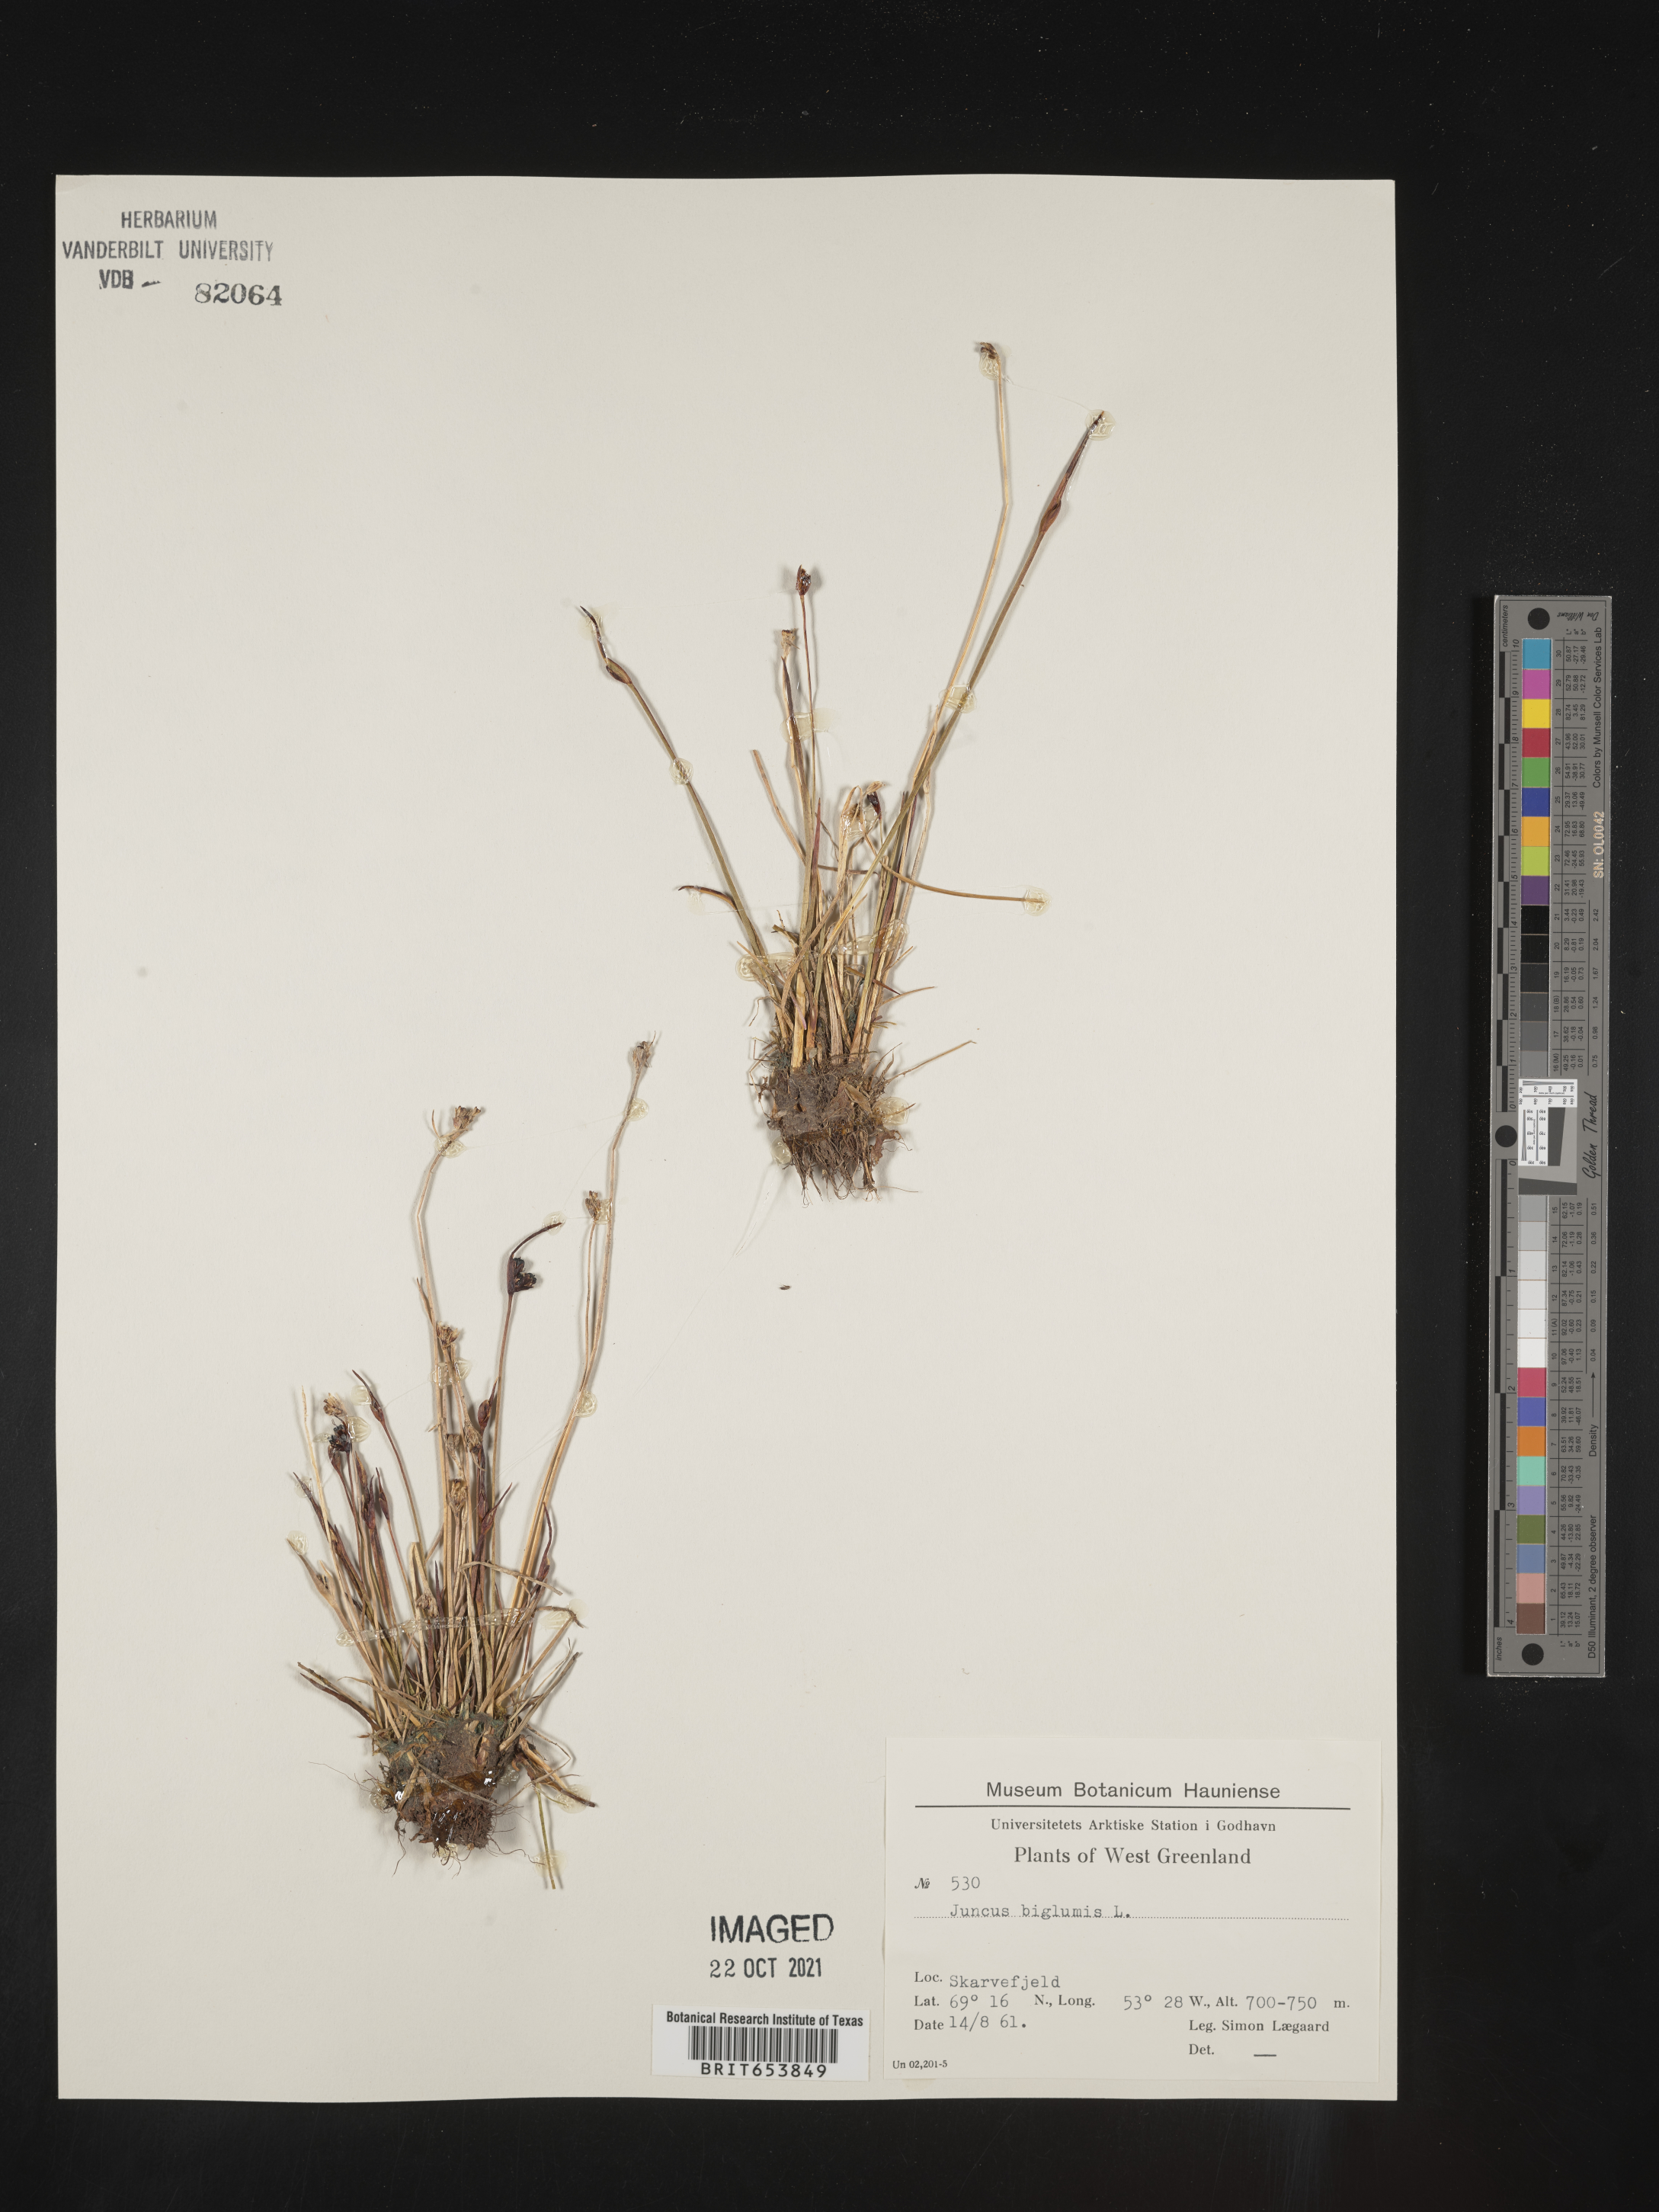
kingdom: Plantae
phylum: Tracheophyta
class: Liliopsida
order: Poales
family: Juncaceae
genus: Juncus
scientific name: Juncus
